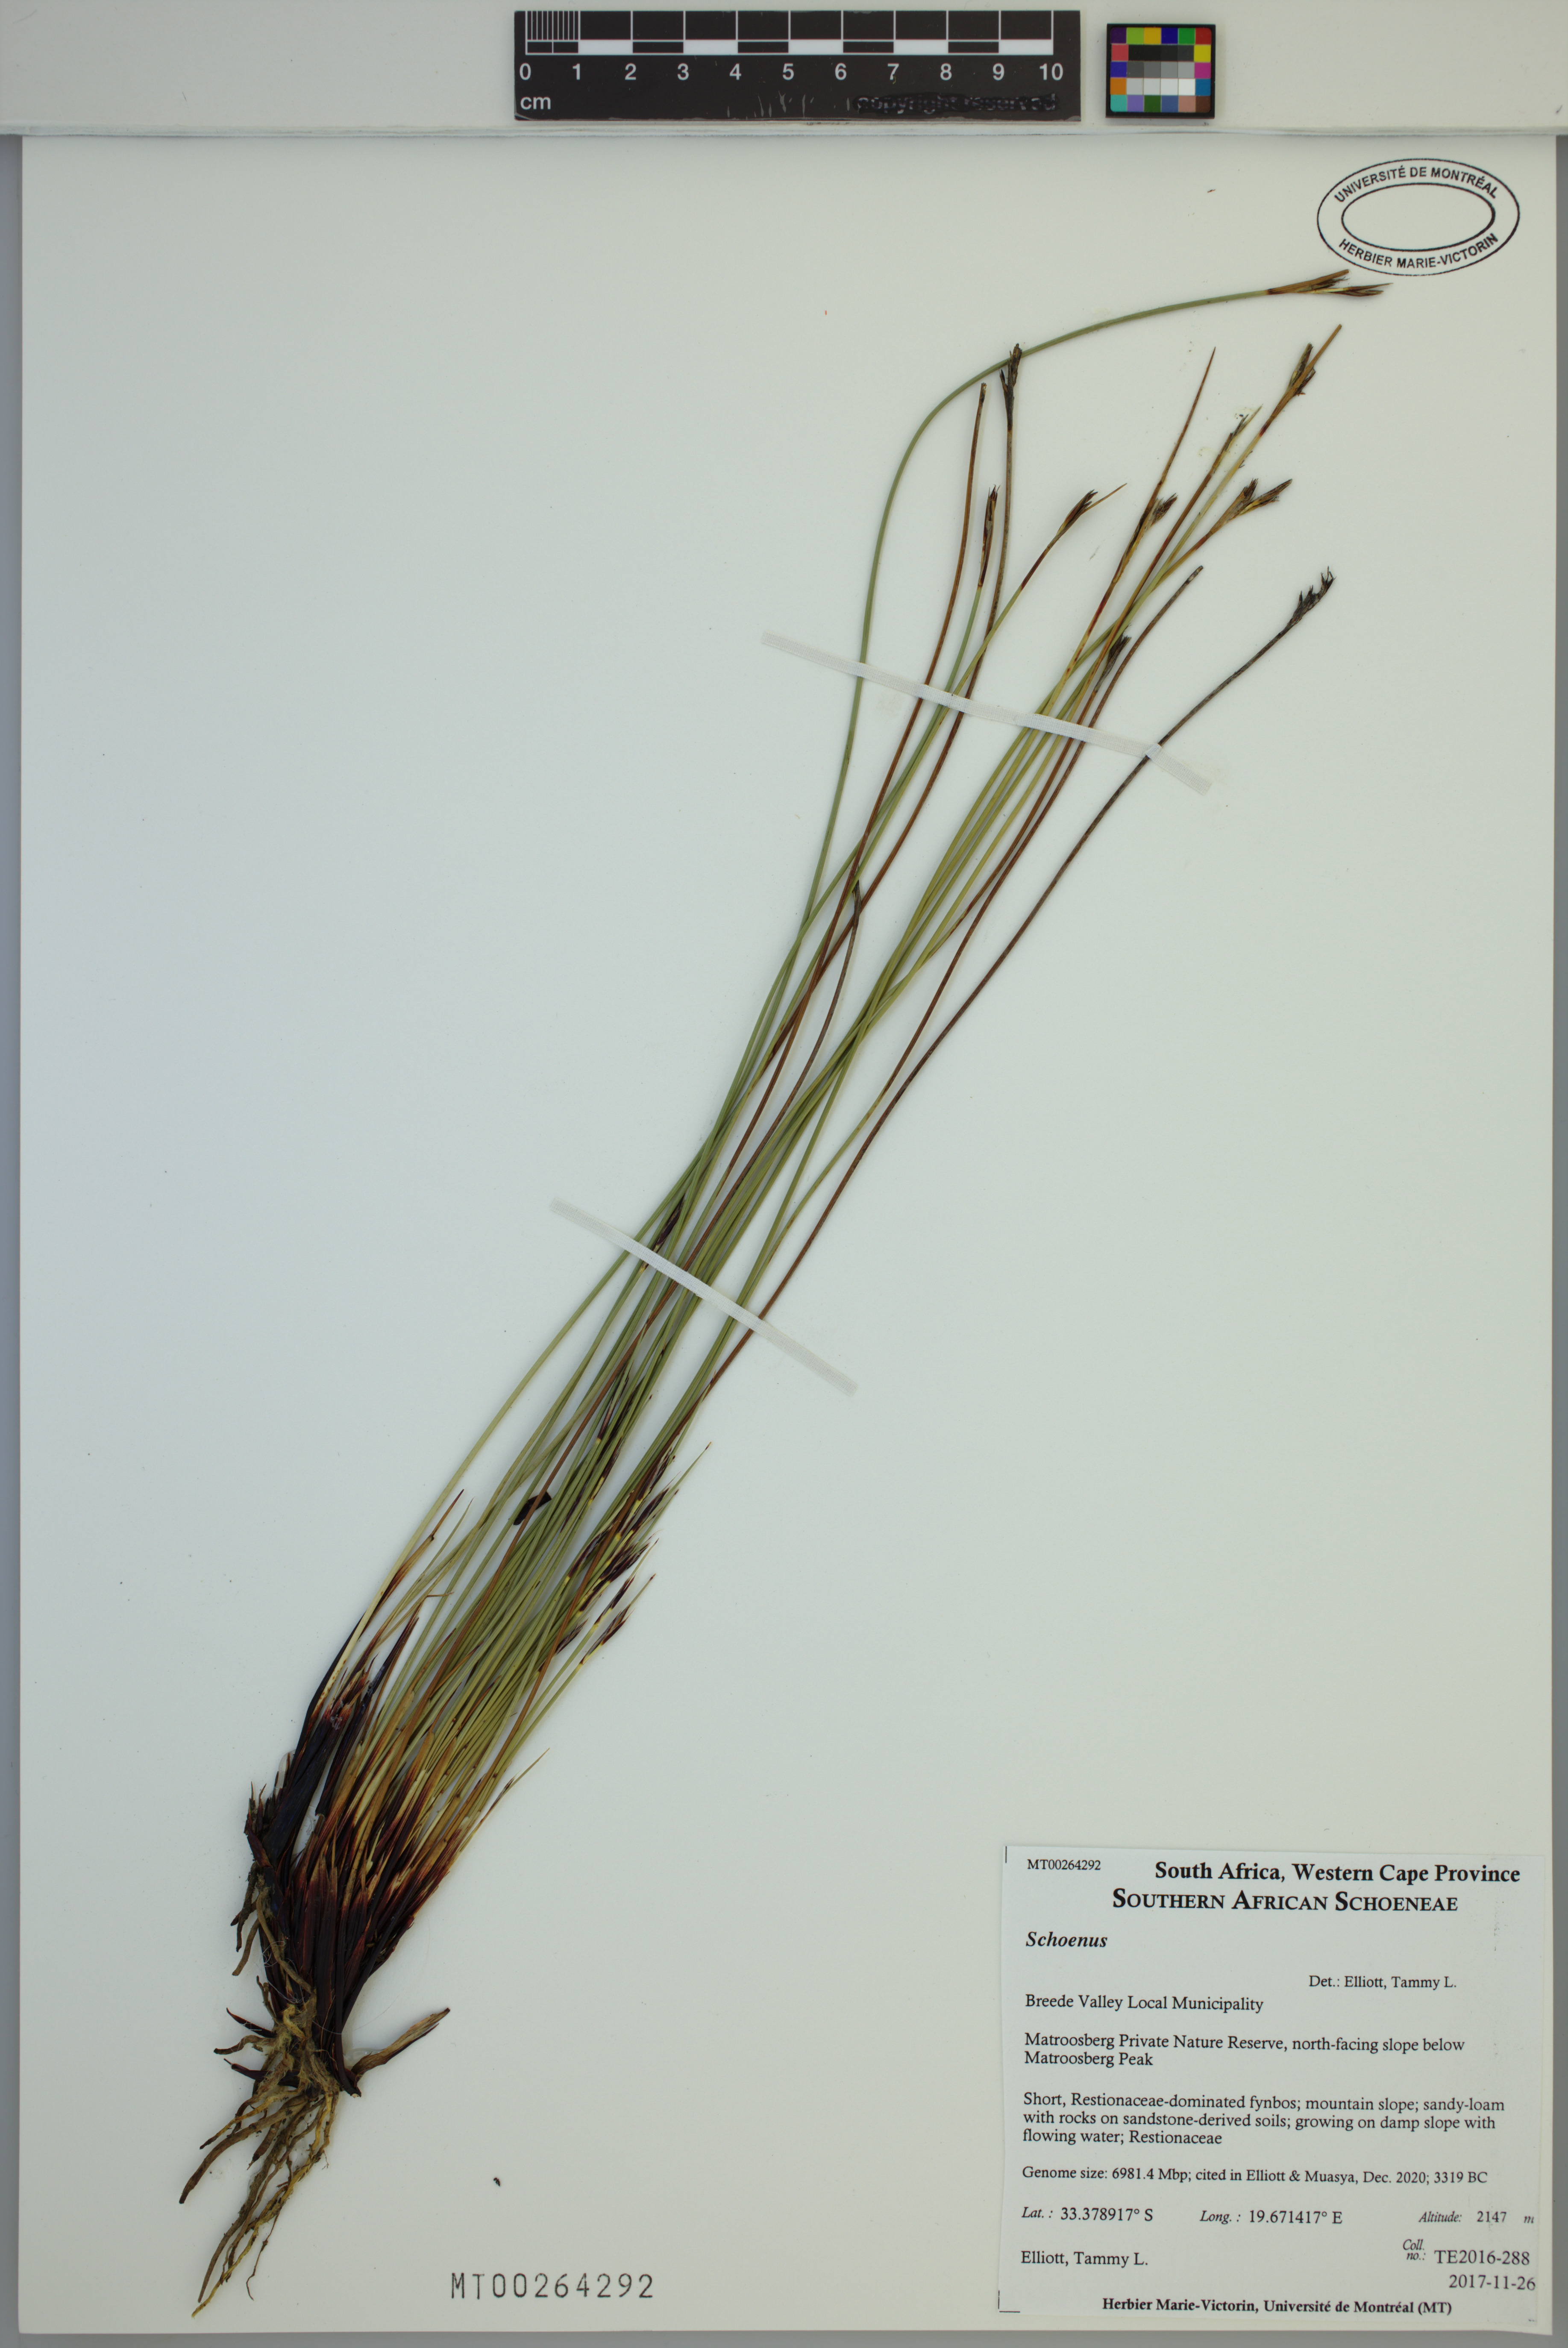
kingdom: Plantae
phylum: Tracheophyta
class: Liliopsida
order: Poales
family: Cyperaceae
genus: Schoenus
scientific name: Schoenus
